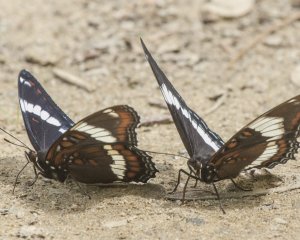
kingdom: Animalia
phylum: Arthropoda
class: Insecta
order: Lepidoptera
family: Nymphalidae
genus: Limenitis
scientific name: Limenitis arthemis
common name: Red-spotted Admiral
